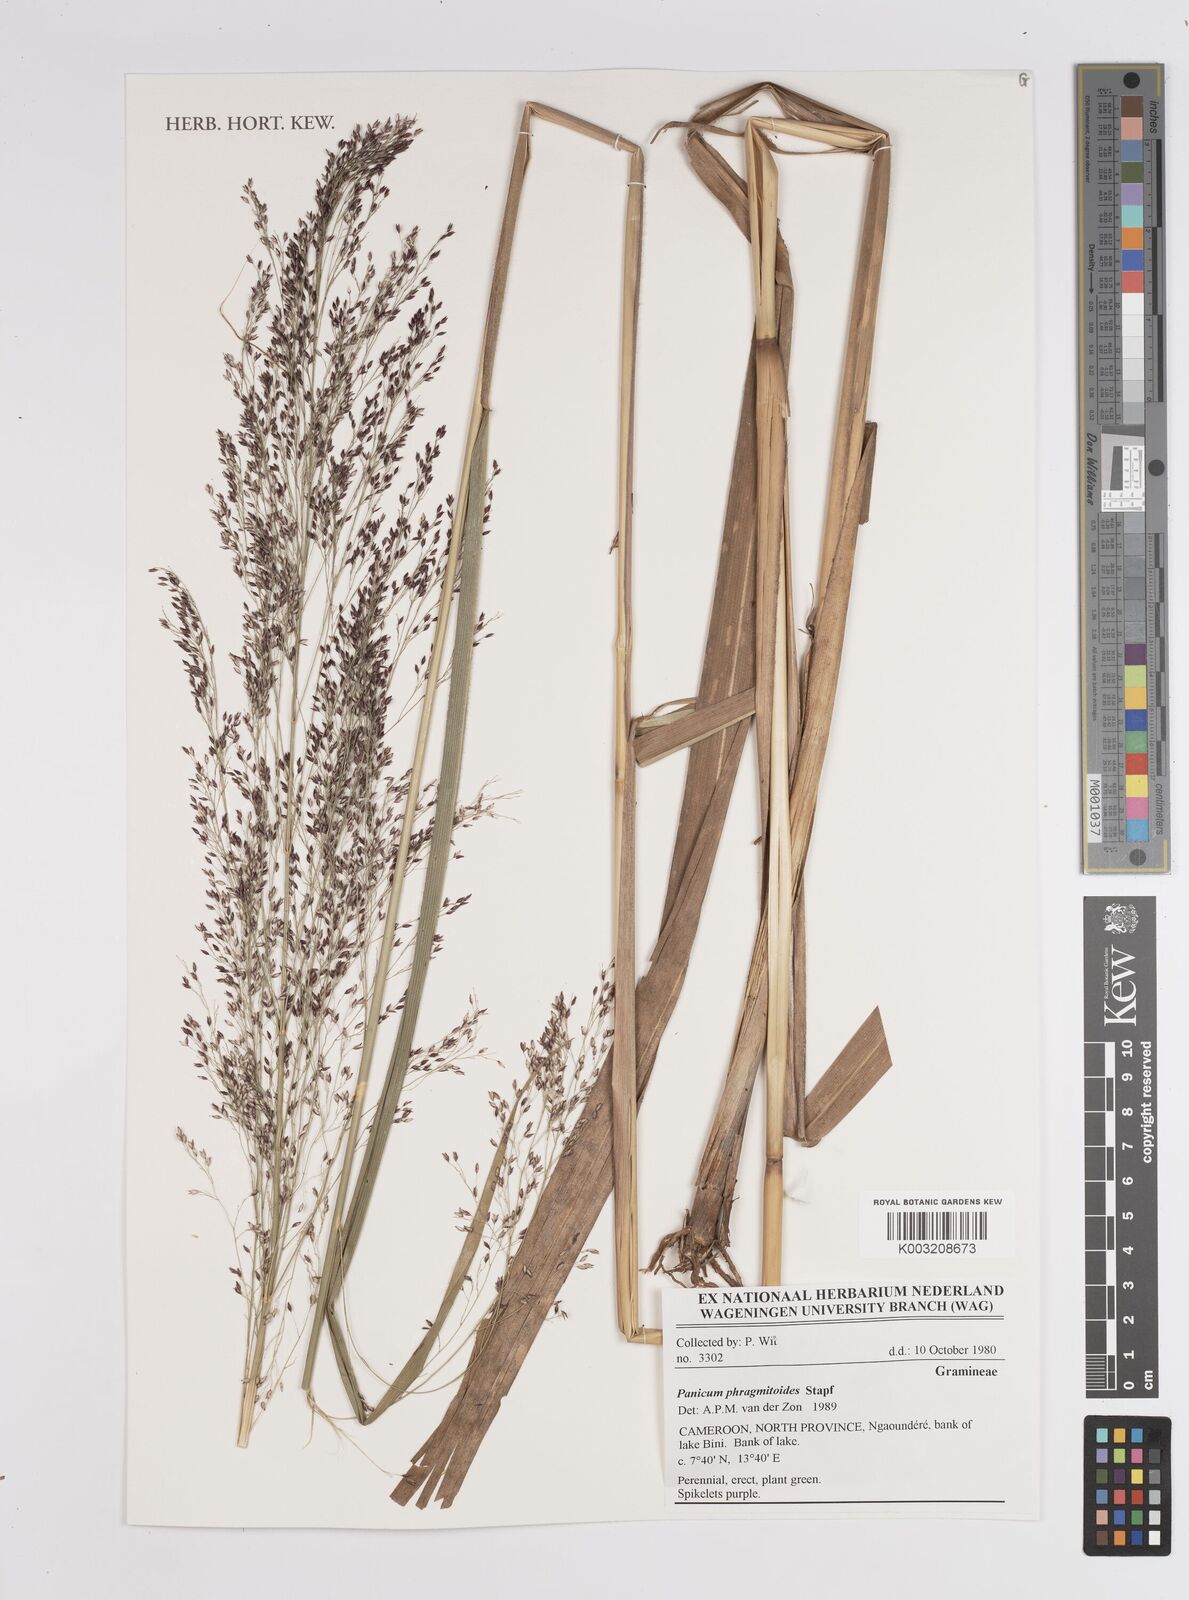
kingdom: Plantae
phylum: Tracheophyta
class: Liliopsida
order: Poales
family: Poaceae
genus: Panicum
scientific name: Panicum phragmitoides
